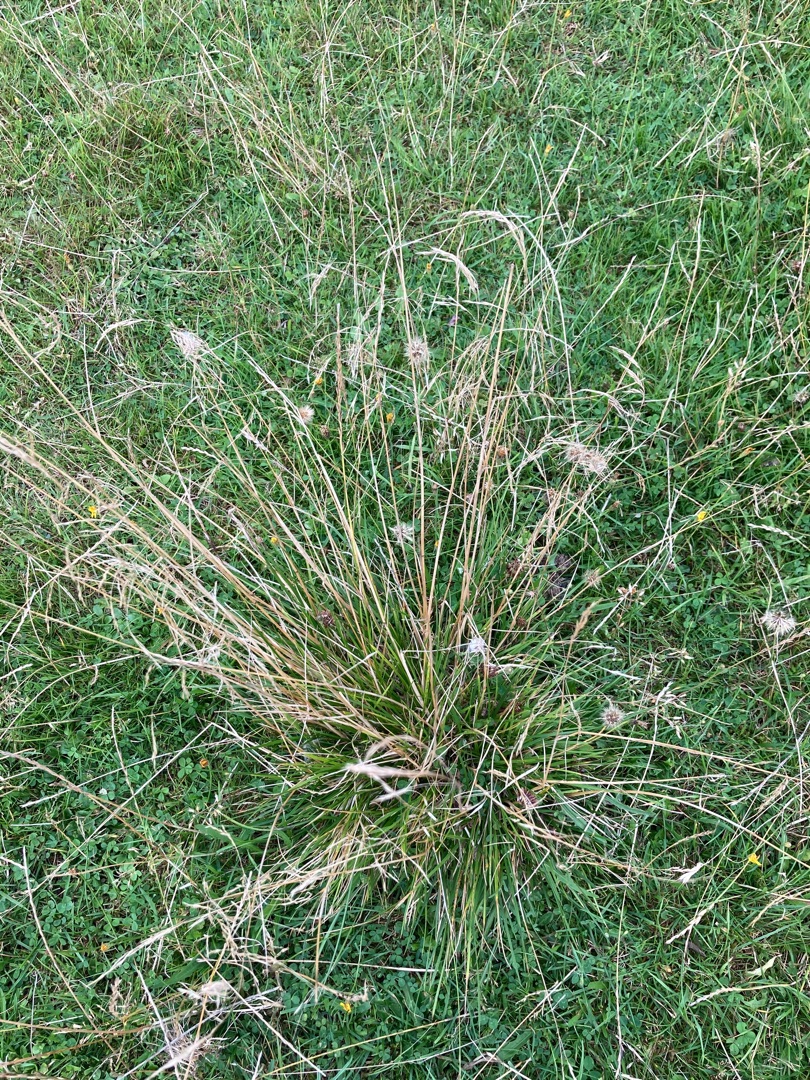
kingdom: Plantae
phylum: Tracheophyta
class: Liliopsida
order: Poales
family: Poaceae
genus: Deschampsia
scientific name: Deschampsia cespitosa
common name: Mose-bunke
